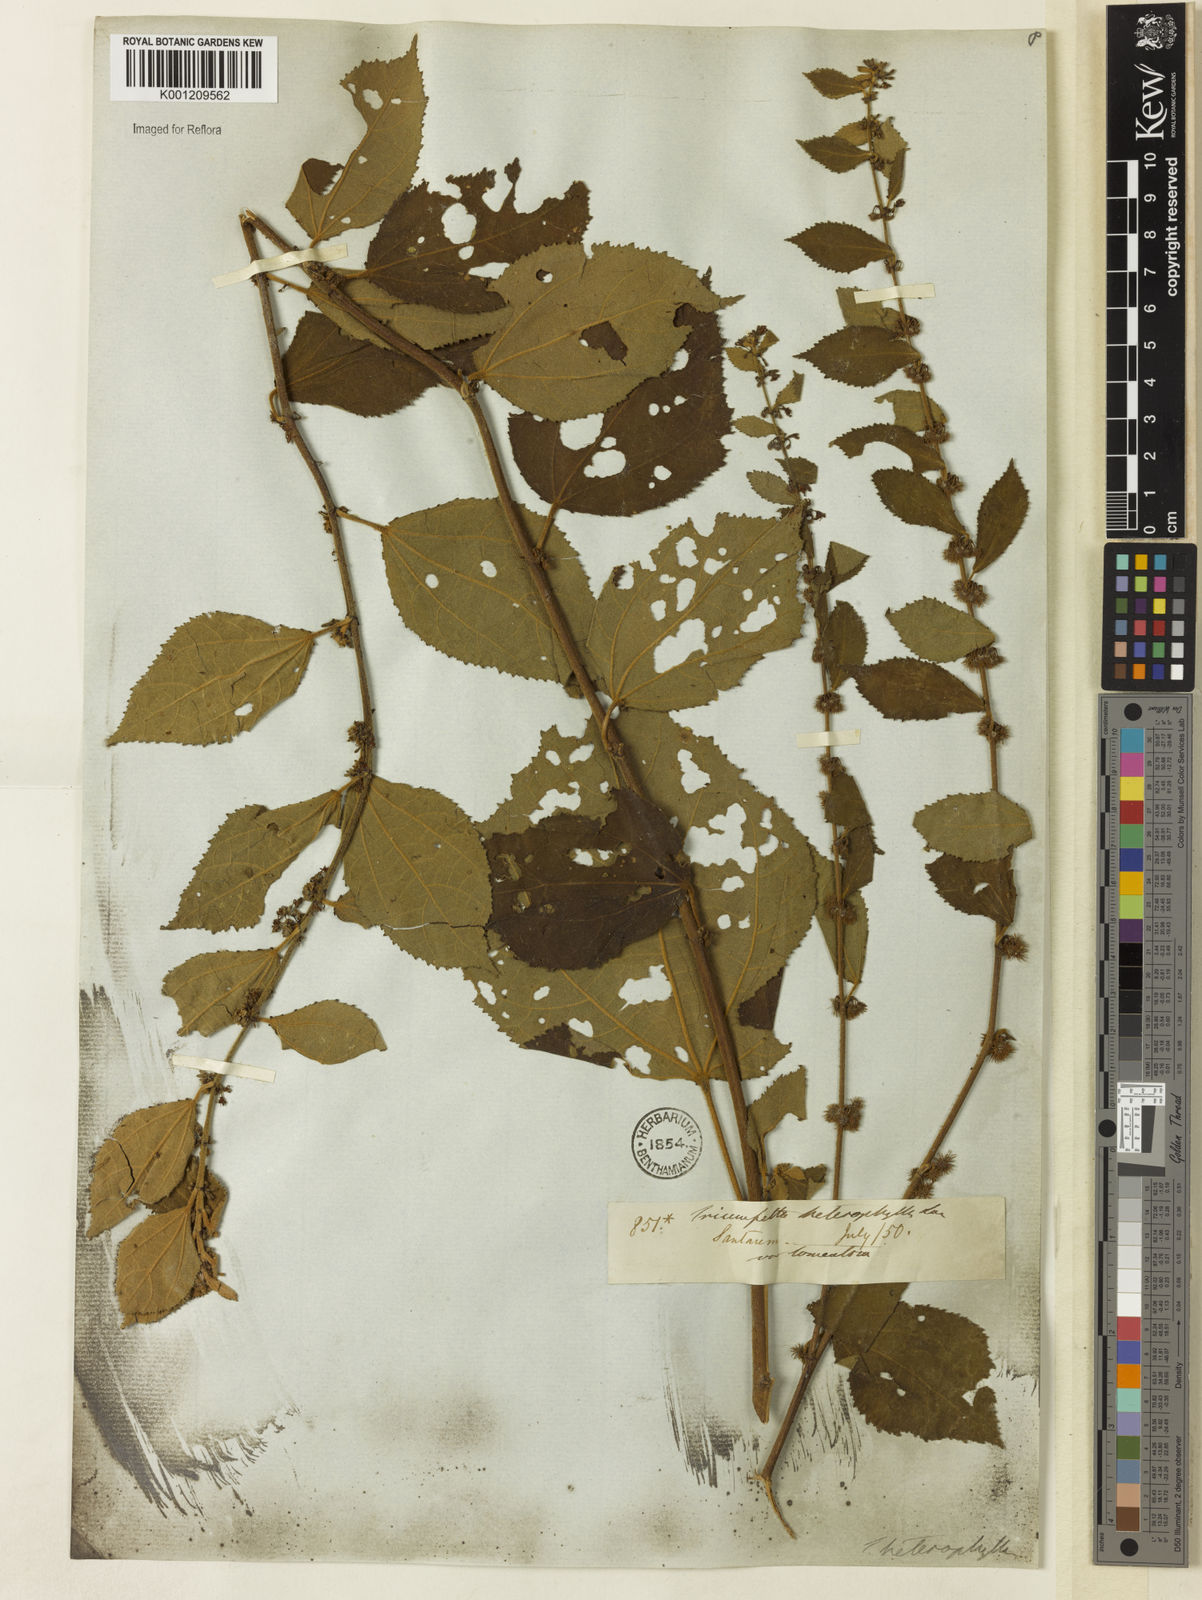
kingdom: Plantae
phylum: Tracheophyta
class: Magnoliopsida
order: Malvales
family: Malvaceae
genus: Triumfetta
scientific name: Triumfetta lappula
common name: Burbark
